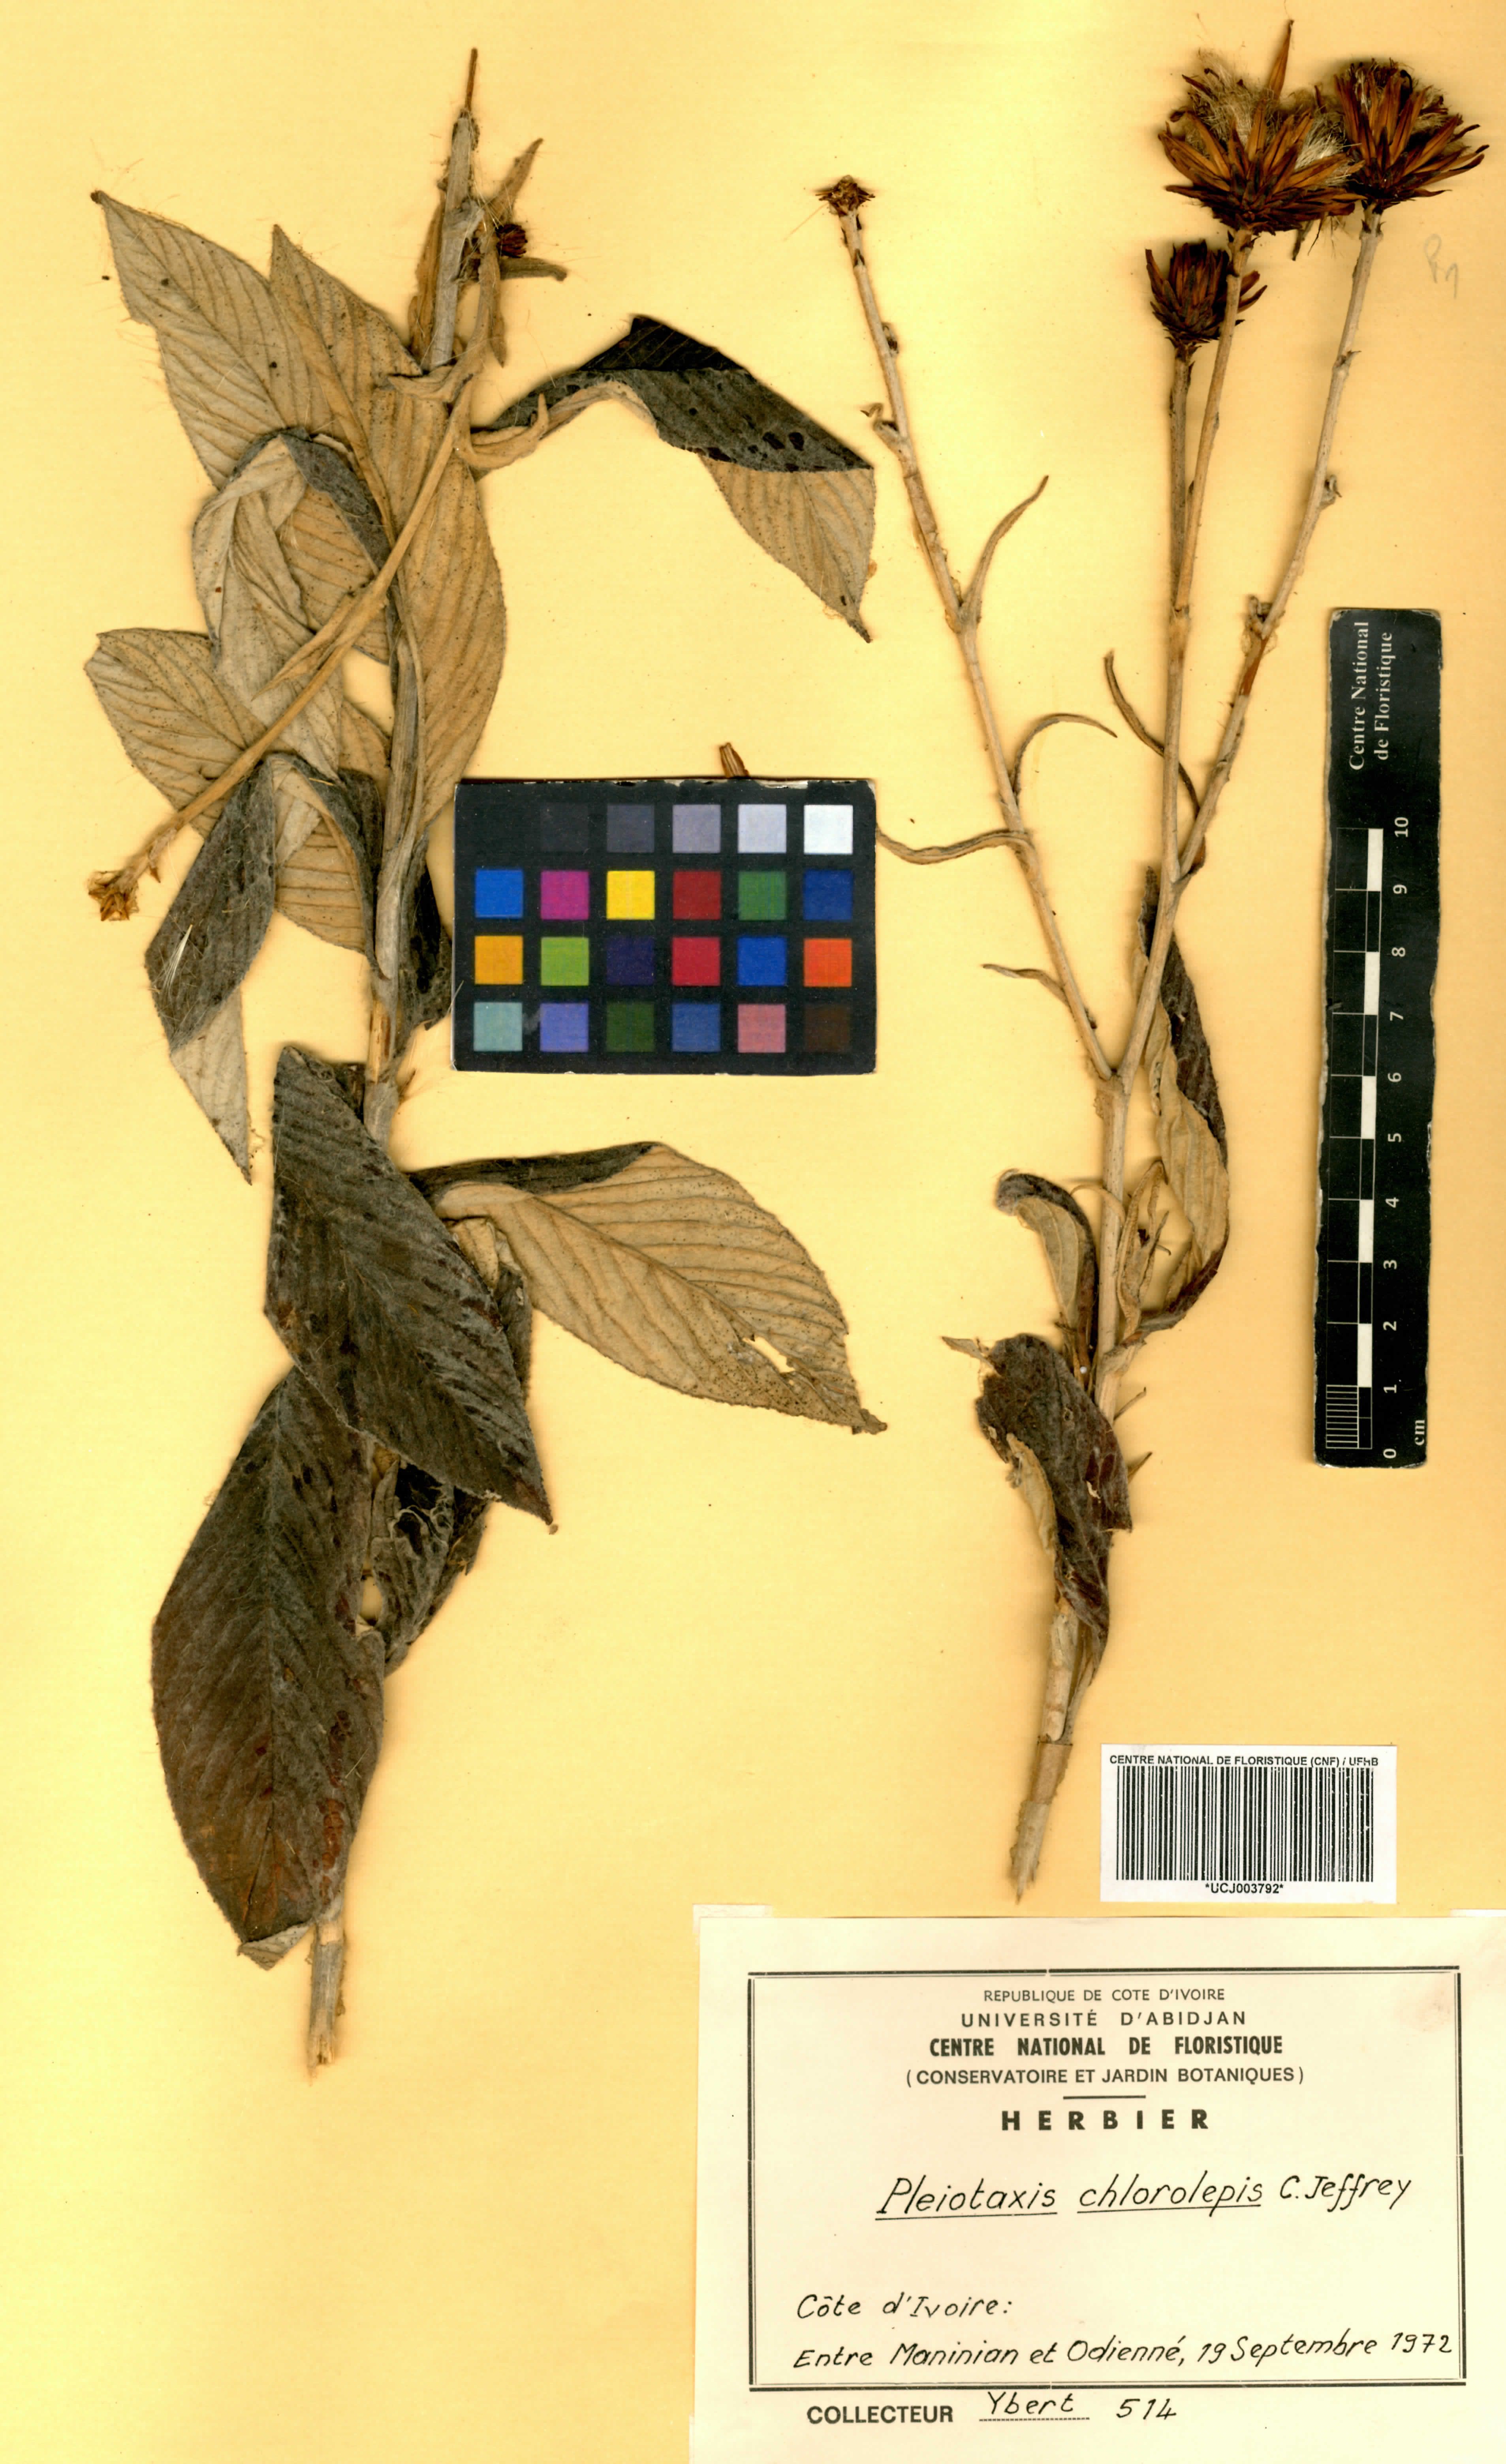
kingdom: Plantae
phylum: Tracheophyta
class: Magnoliopsida
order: Asterales
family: Asteraceae
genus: Pleiotaxis
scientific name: Pleiotaxis chlorolepis
